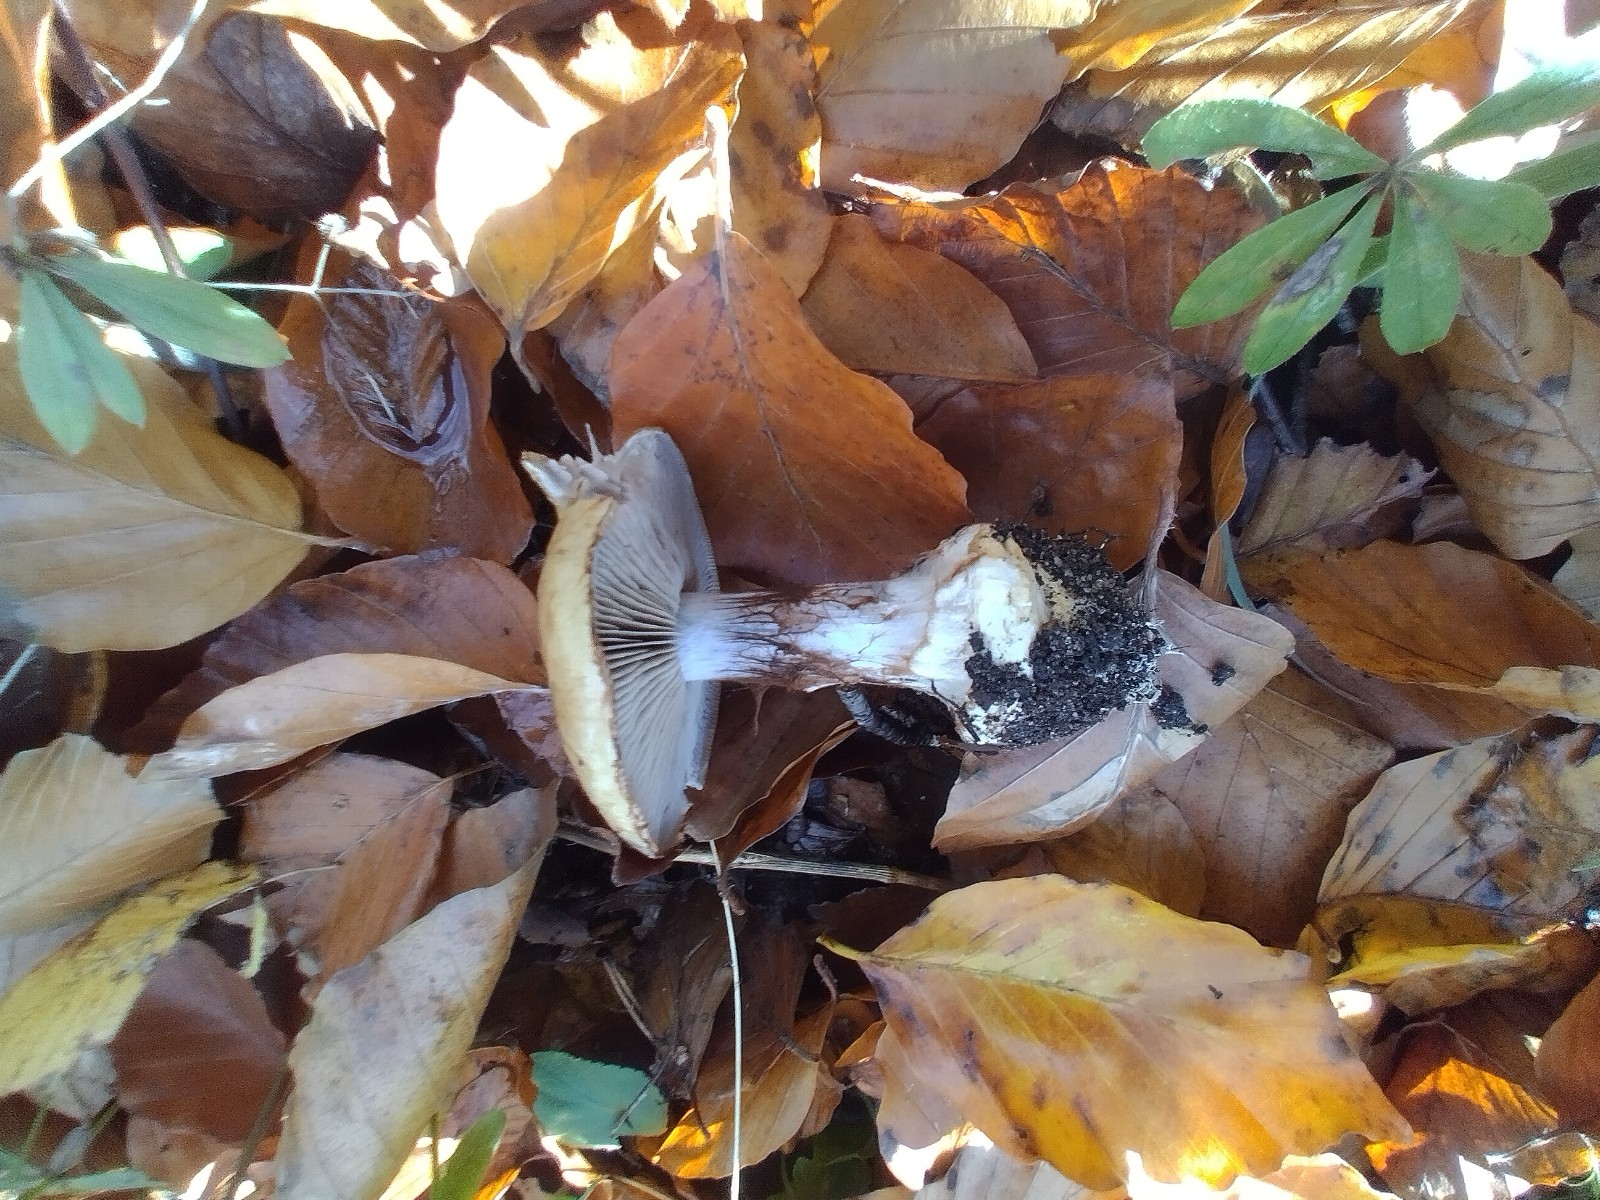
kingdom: Fungi
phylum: Basidiomycota
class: Agaricomycetes
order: Agaricales
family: Cortinariaceae
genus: Cortinarius
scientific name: Cortinarius anserinus
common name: bøge-slørhat
